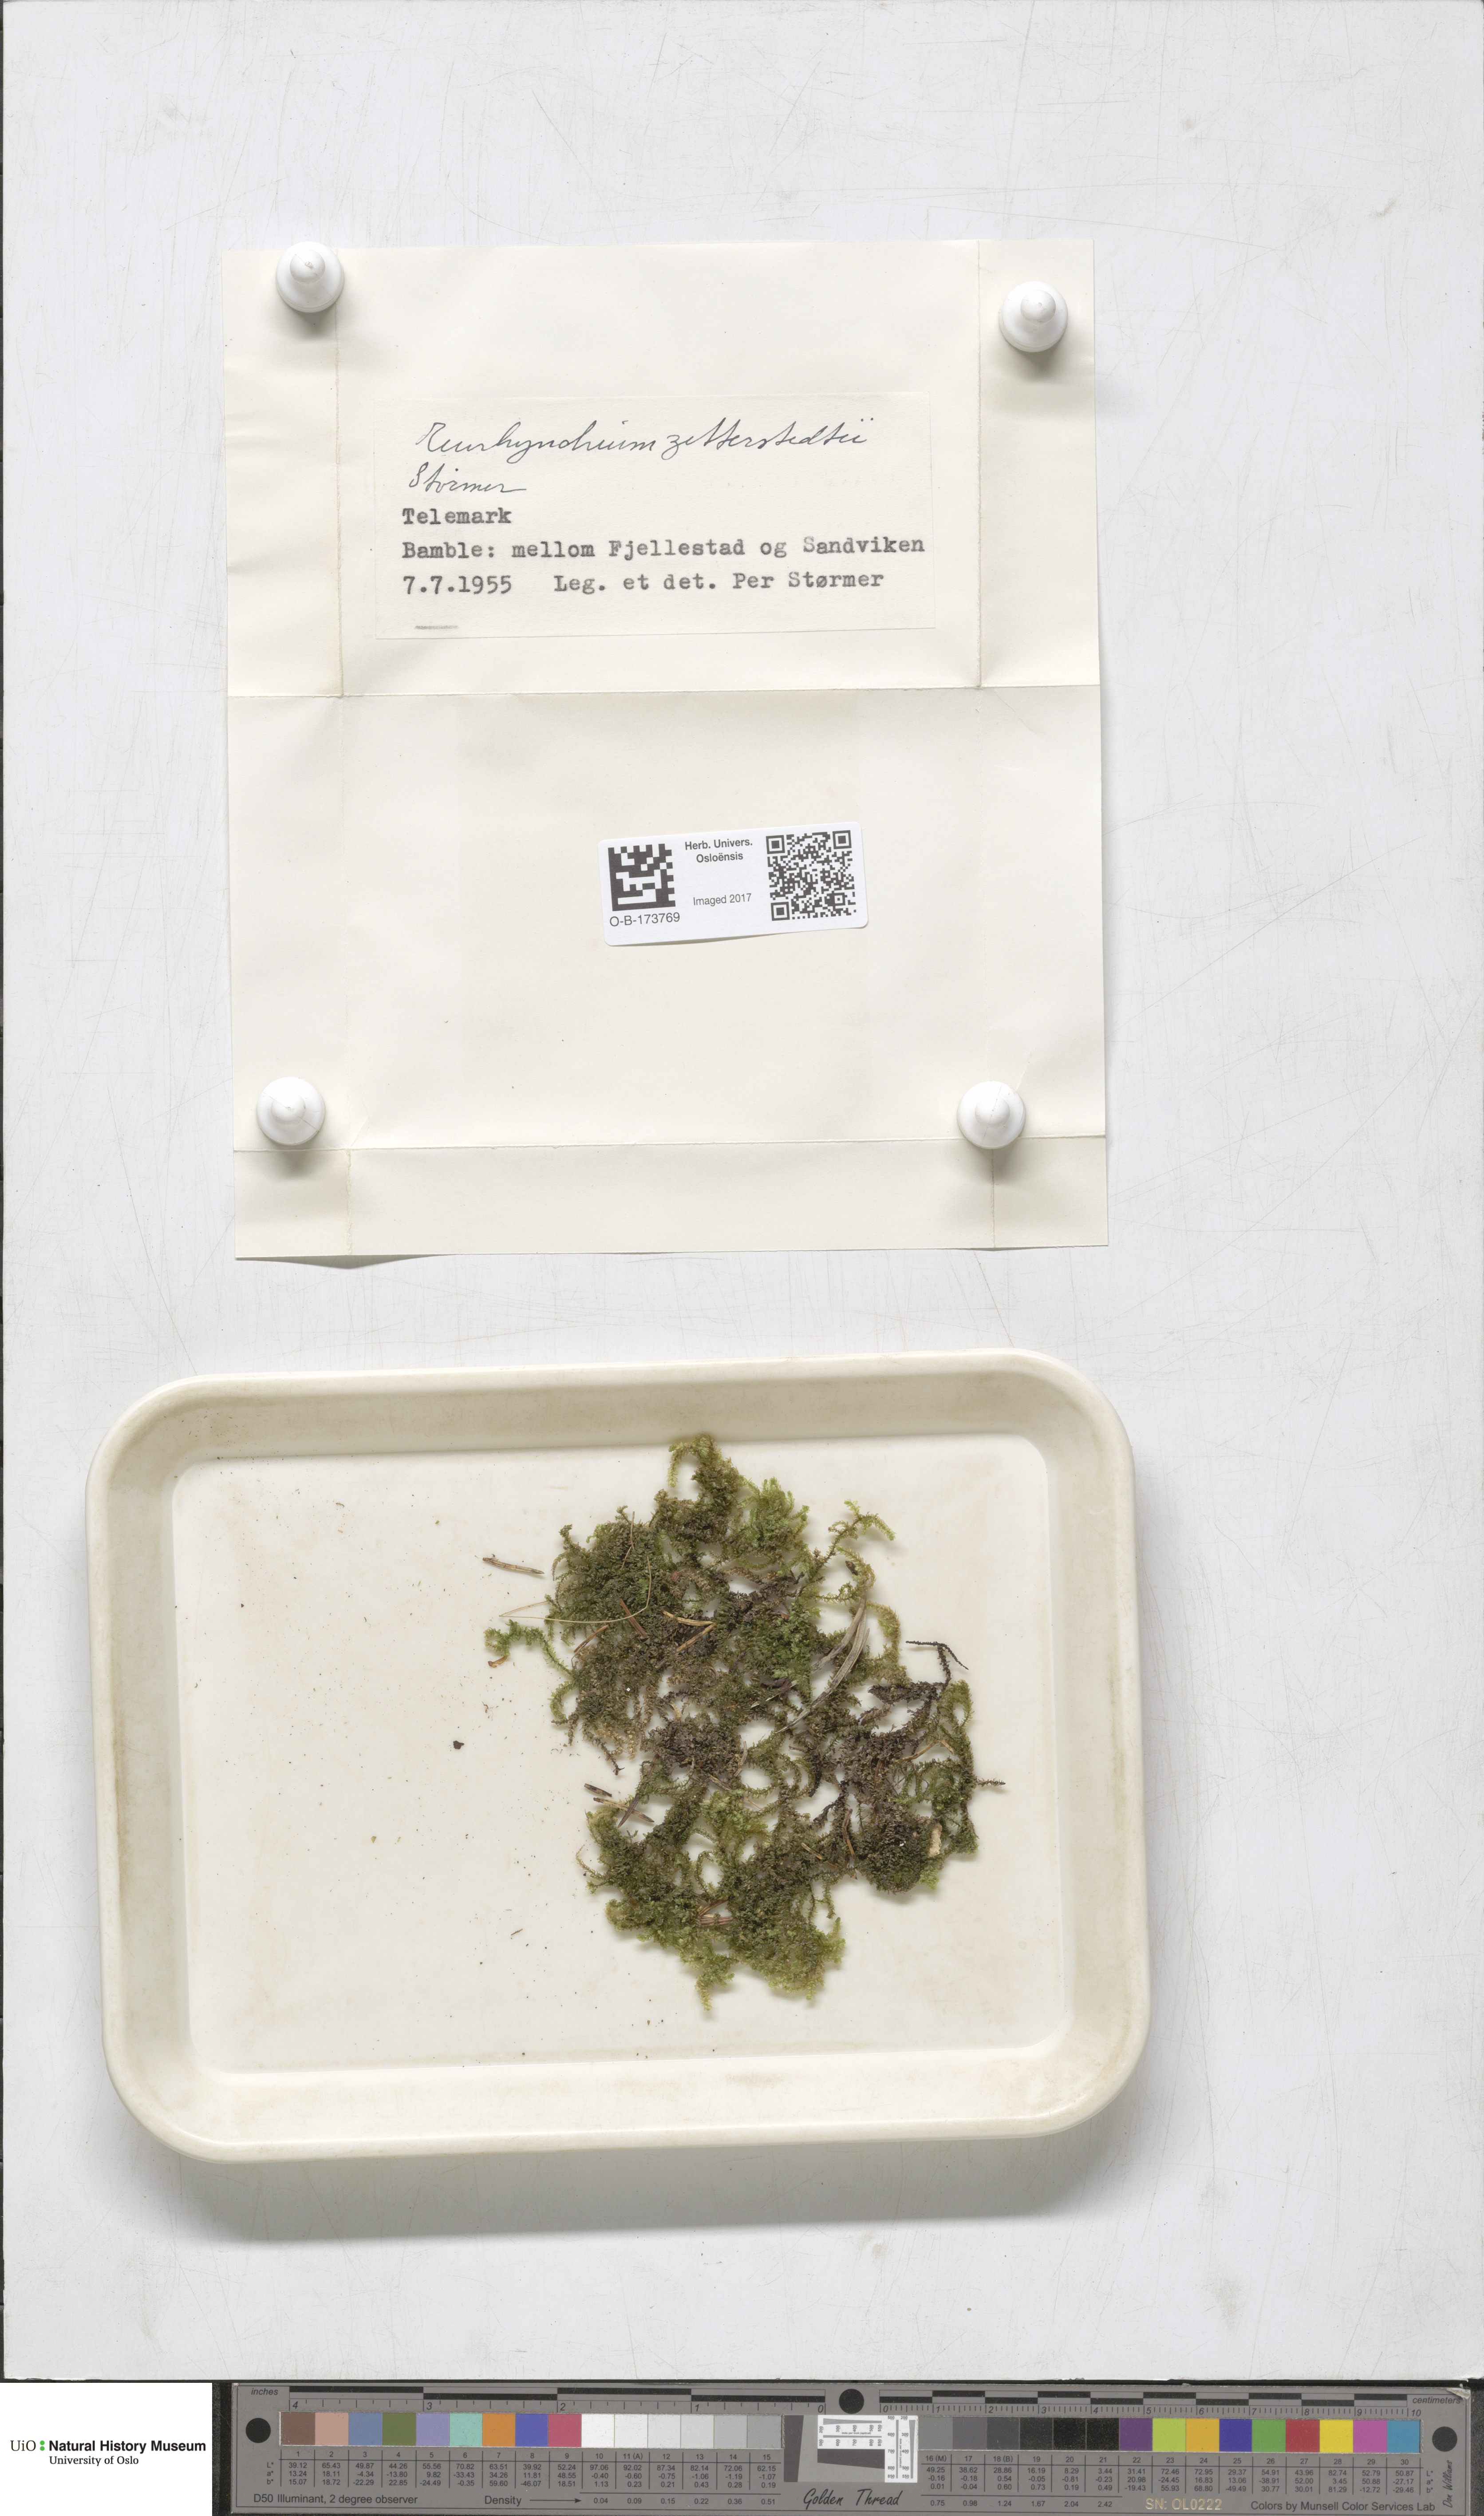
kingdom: Plantae
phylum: Bryophyta
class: Bryopsida
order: Hypnales
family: Brachytheciaceae
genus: Eurhynchium
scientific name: Eurhynchium angustirete
